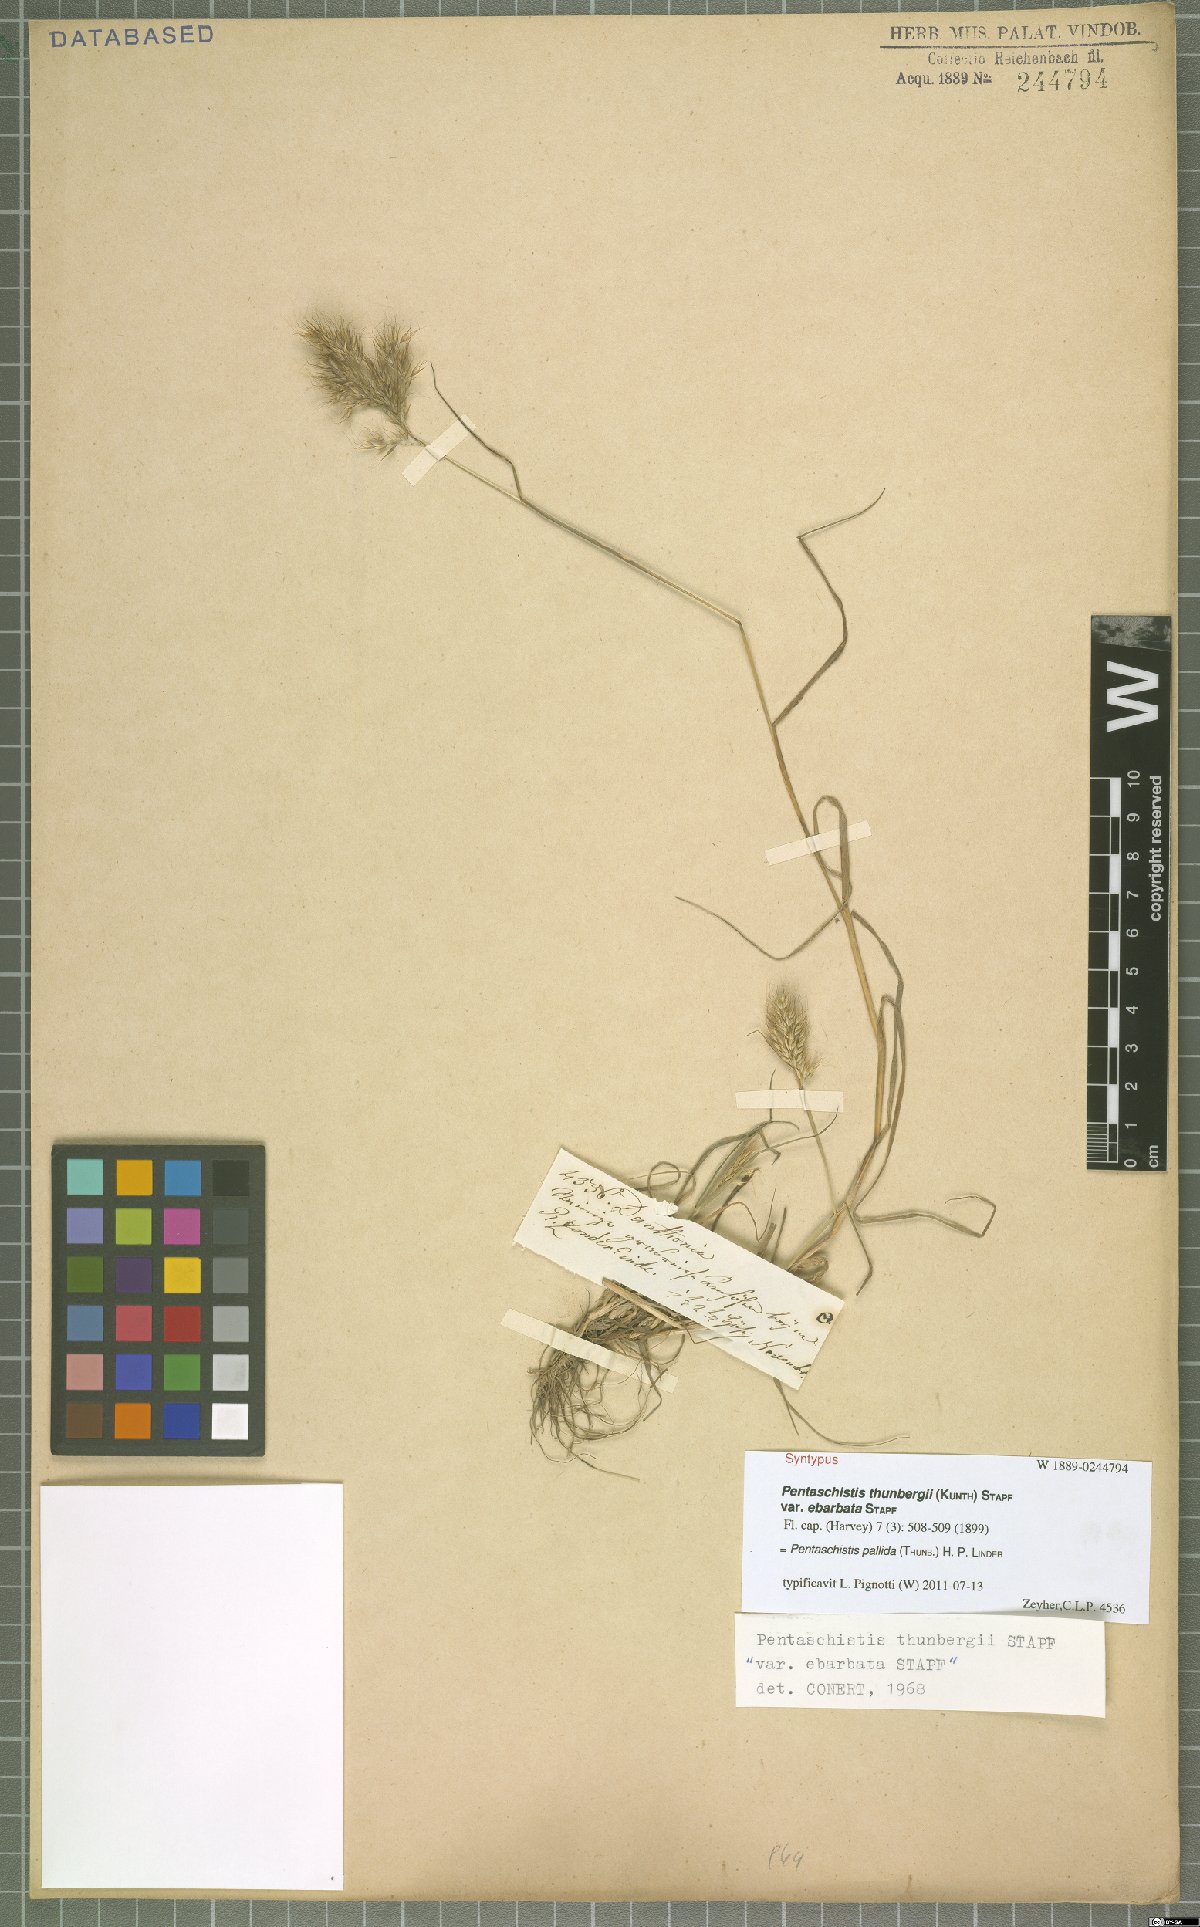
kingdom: Plantae
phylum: Tracheophyta
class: Liliopsida
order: Poales
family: Poaceae
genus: Pentameris
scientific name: Pentameris pallida
